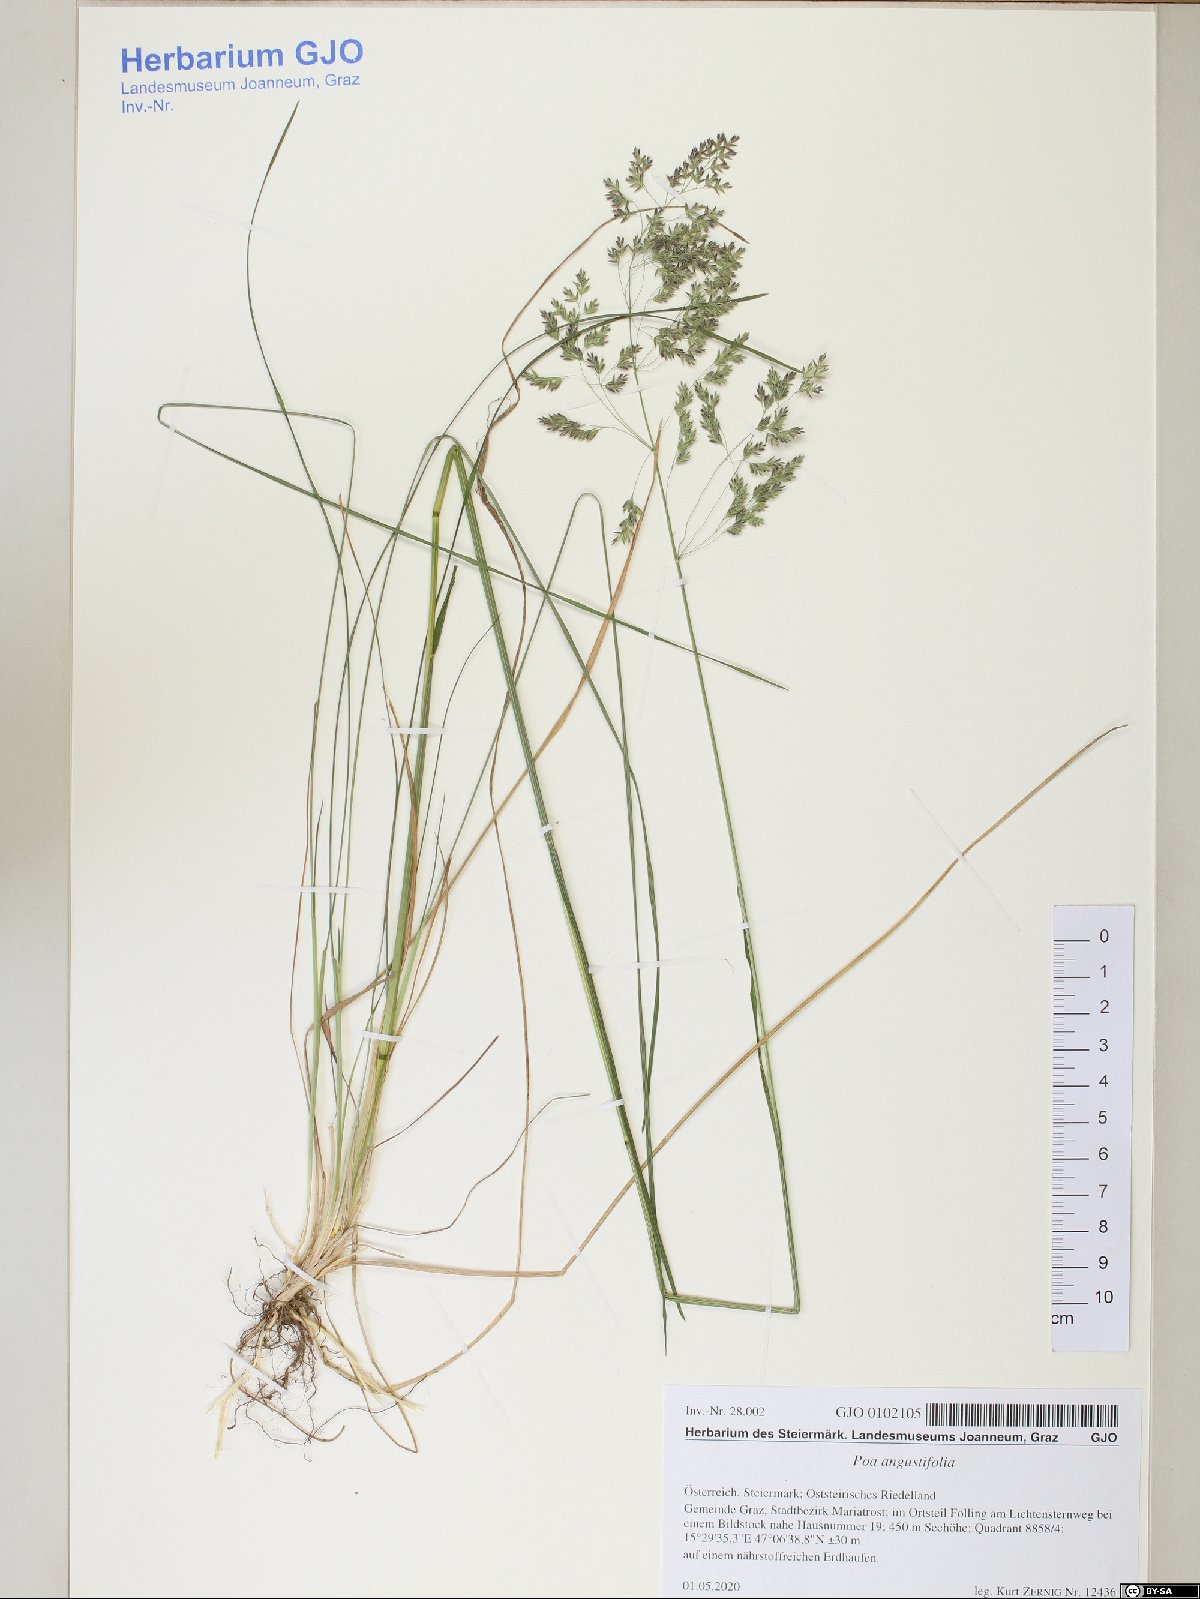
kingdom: Plantae
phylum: Tracheophyta
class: Liliopsida
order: Poales
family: Poaceae
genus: Poa
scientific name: Poa angustifolia
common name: Narrow-leaved meadow-grass
